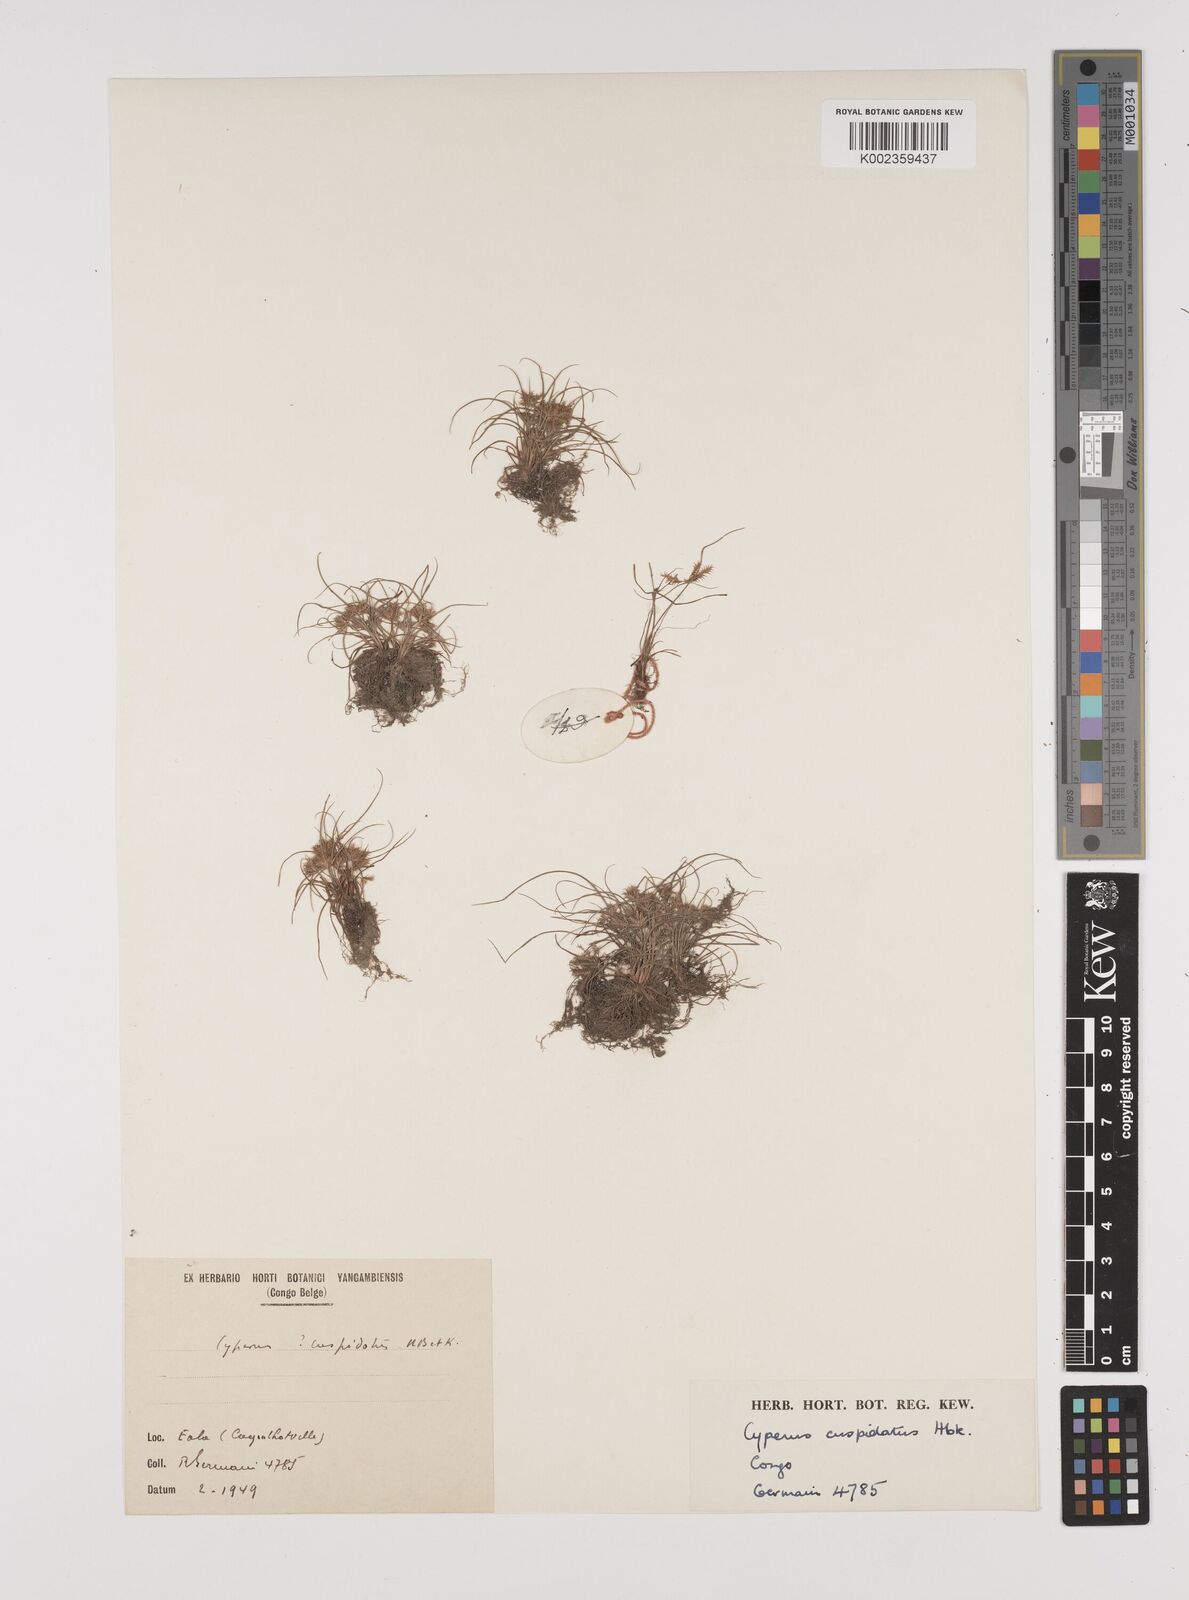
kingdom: Plantae
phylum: Tracheophyta
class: Liliopsida
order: Poales
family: Cyperaceae
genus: Cyperus
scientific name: Cyperus cuspidatus
